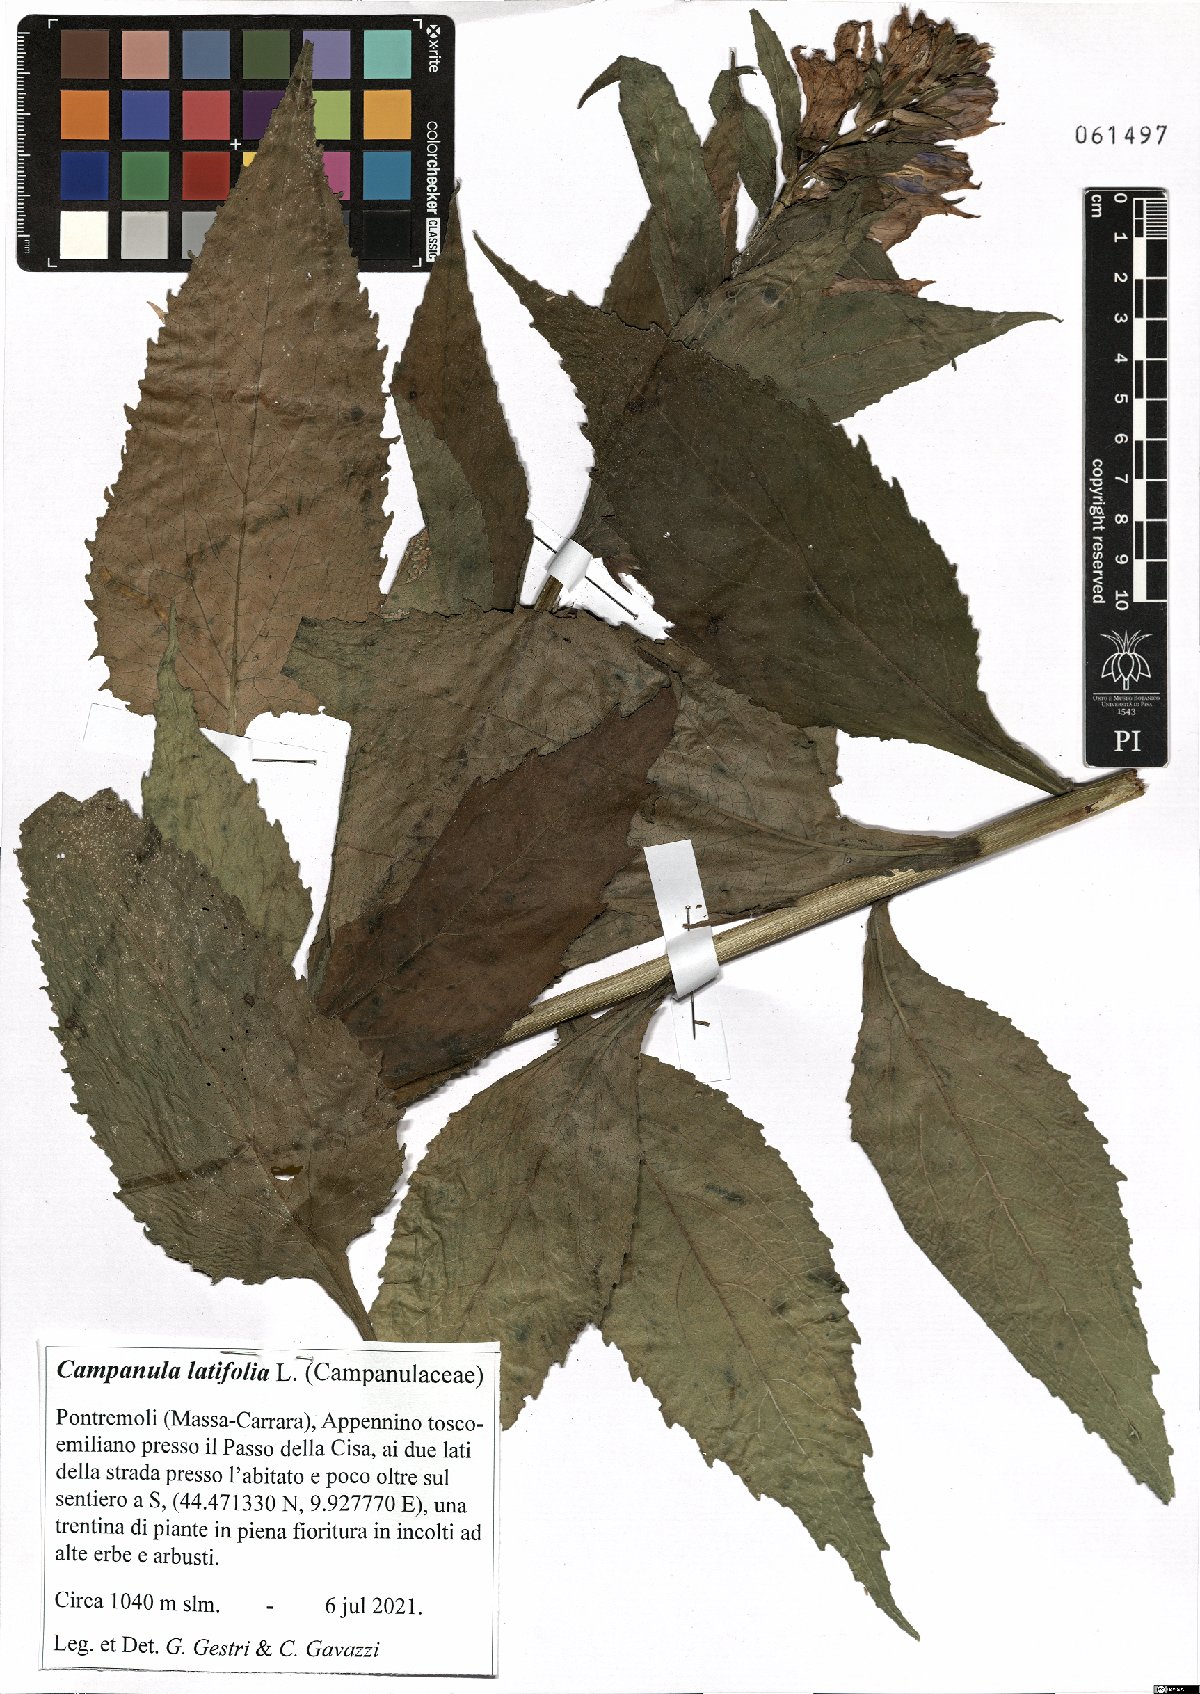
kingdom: Plantae
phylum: Tracheophyta
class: Magnoliopsida
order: Asterales
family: Campanulaceae
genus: Campanula
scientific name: Campanula latifolia
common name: Giant bellflower
